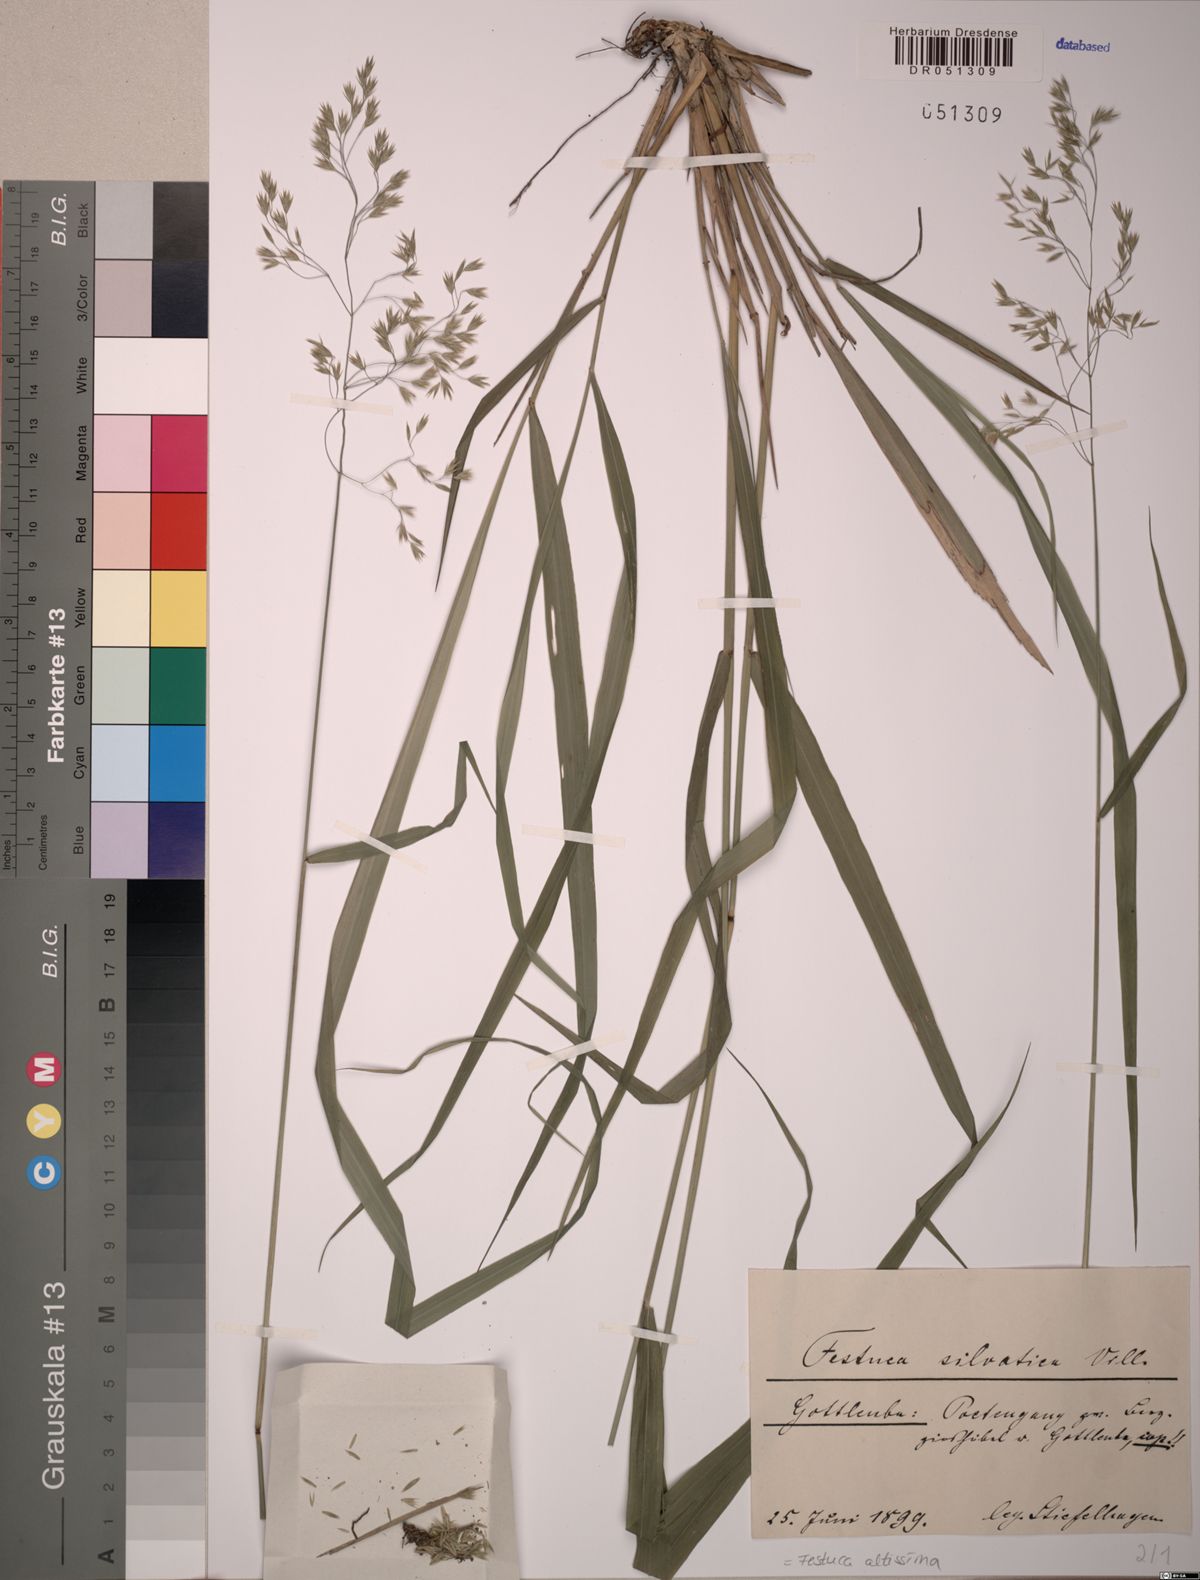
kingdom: Plantae
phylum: Tracheophyta
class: Liliopsida
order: Poales
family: Poaceae
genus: Festuca
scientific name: Festuca altissima
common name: Wood fescue
